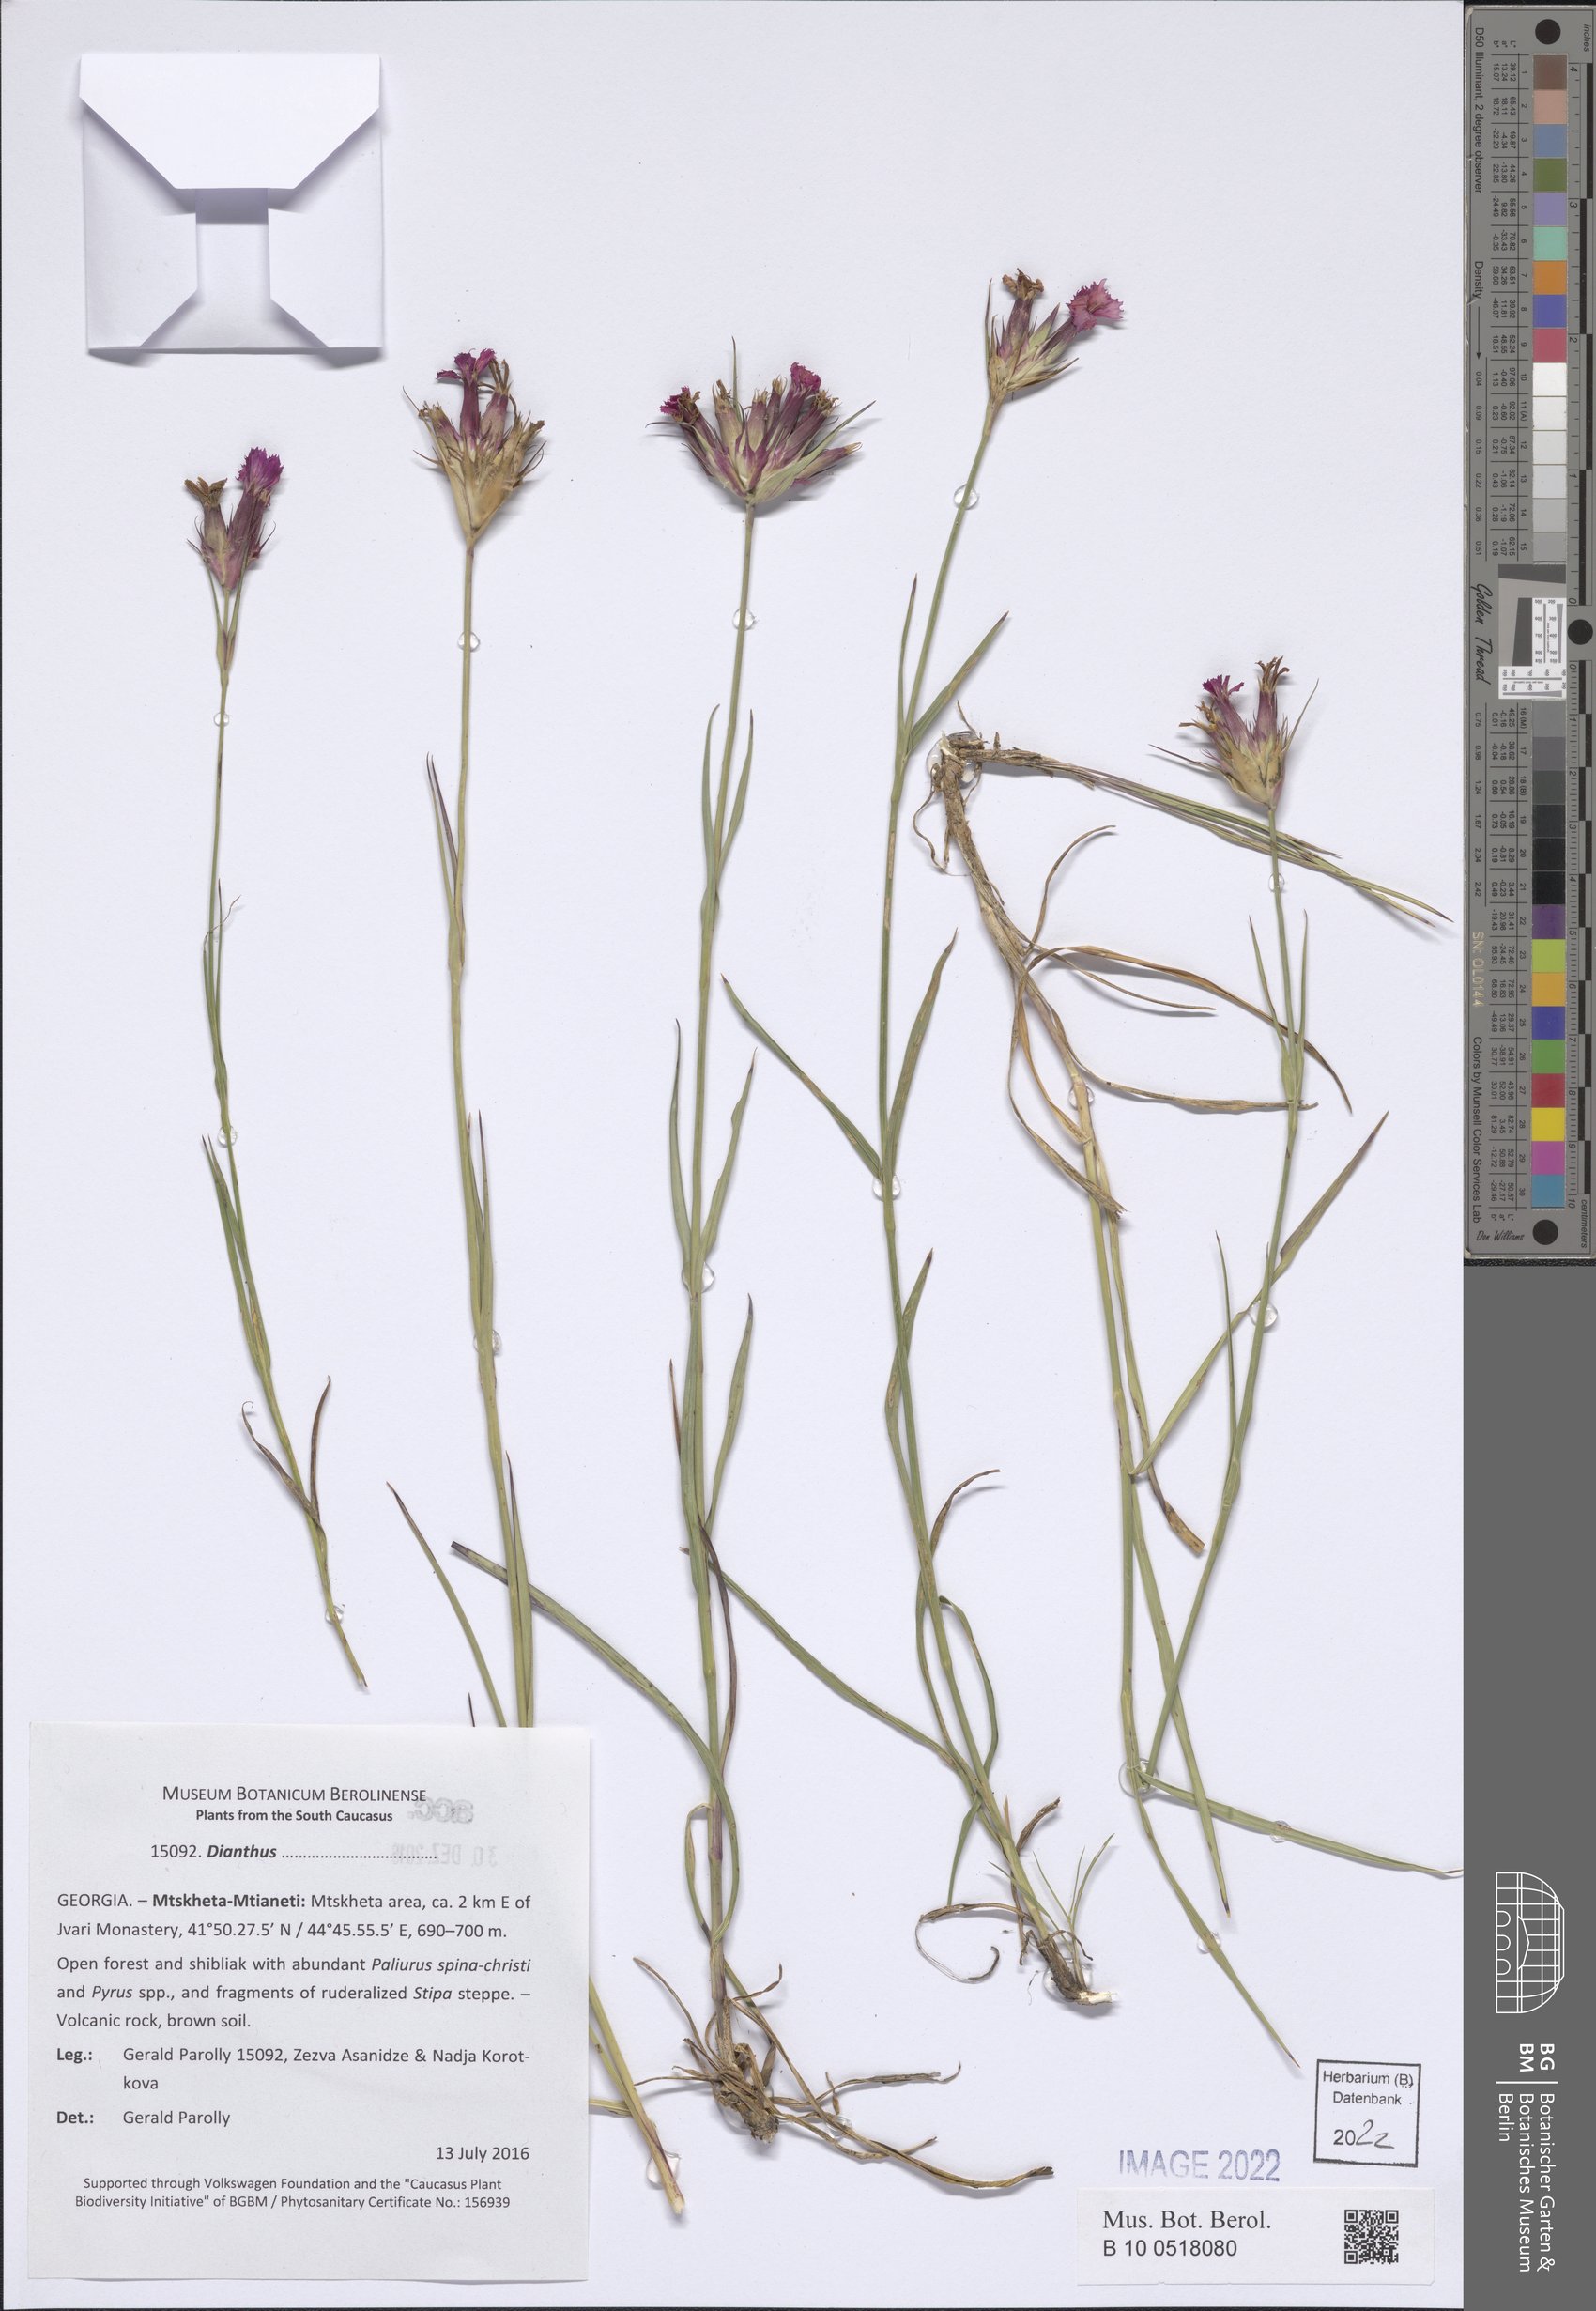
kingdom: Plantae
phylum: Tracheophyta
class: Magnoliopsida
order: Caryophyllales
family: Caryophyllaceae
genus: Dianthus
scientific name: Dianthus
